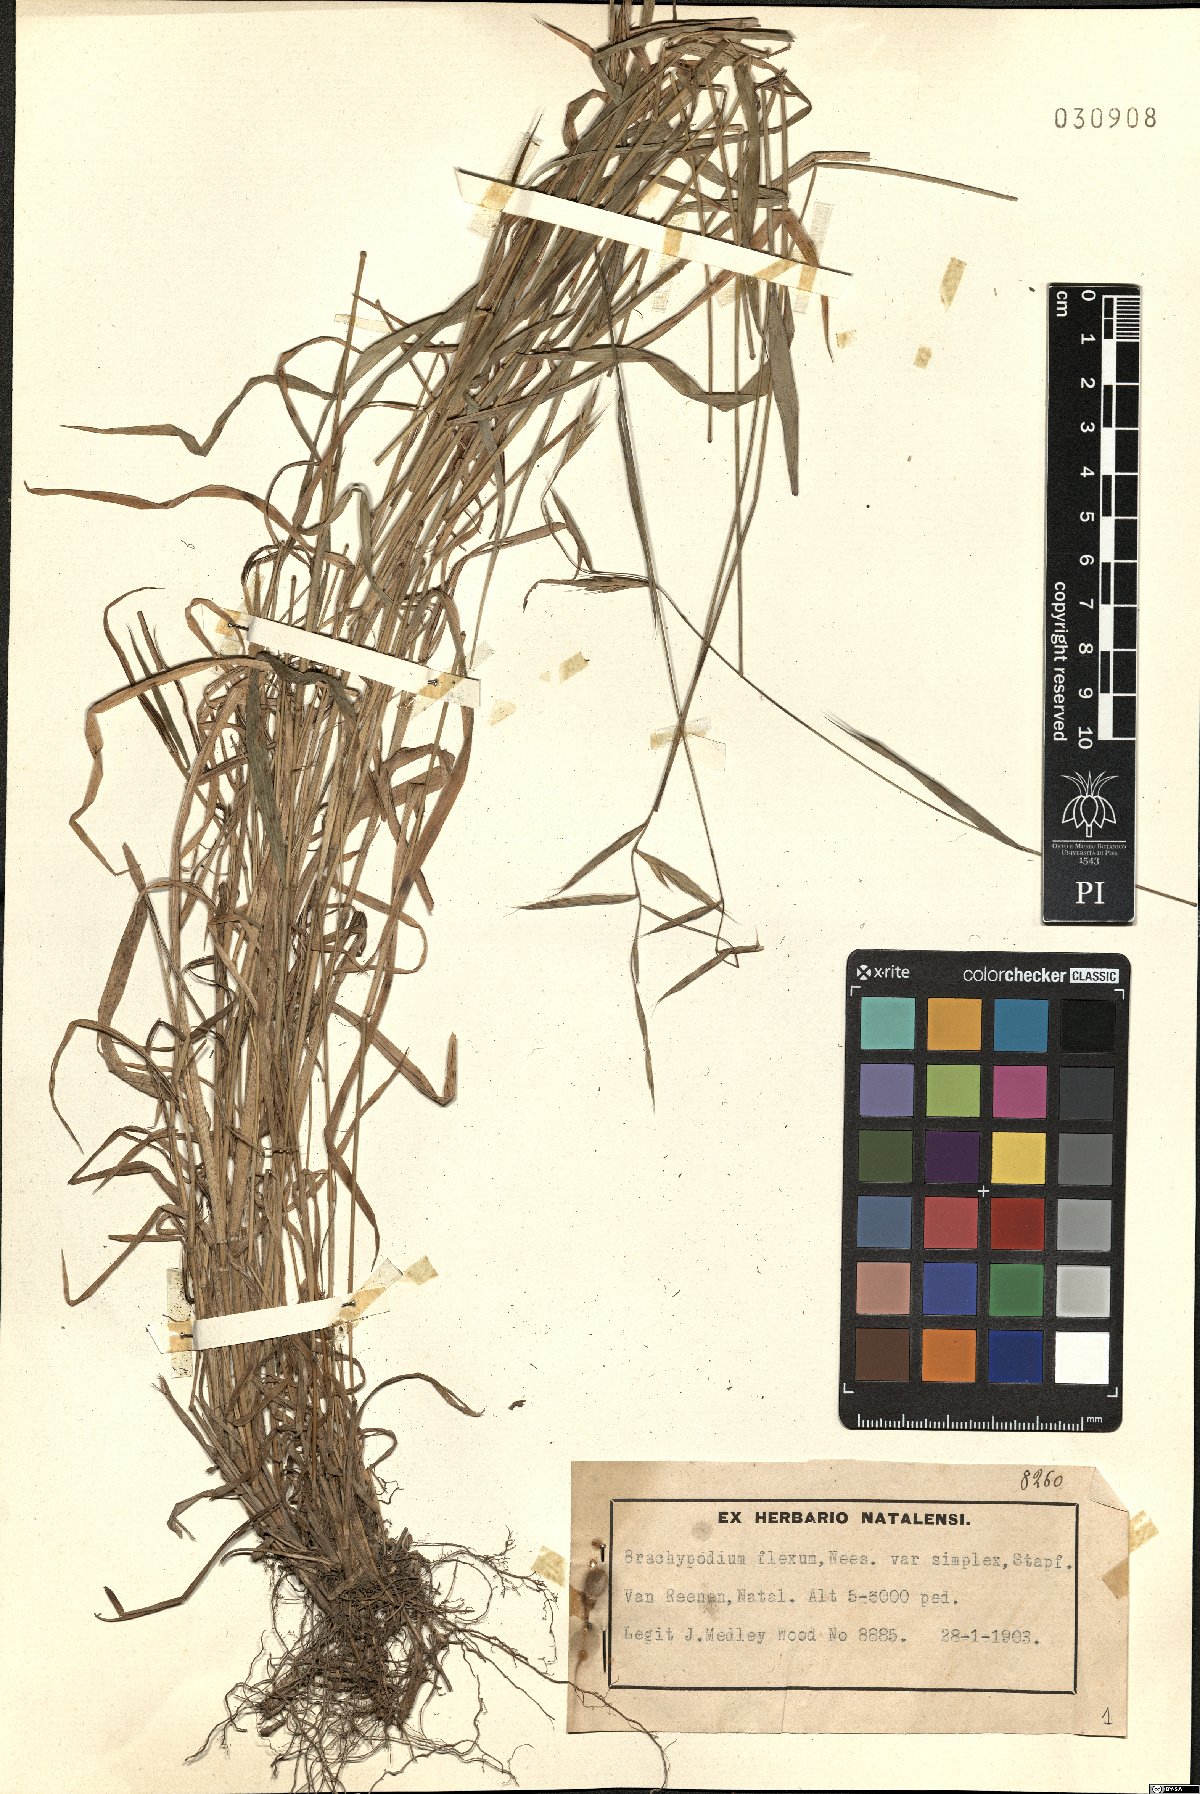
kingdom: Plantae
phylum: Tracheophyta
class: Liliopsida
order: Poales
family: Poaceae
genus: Brachypodium
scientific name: Brachypodium flexum
